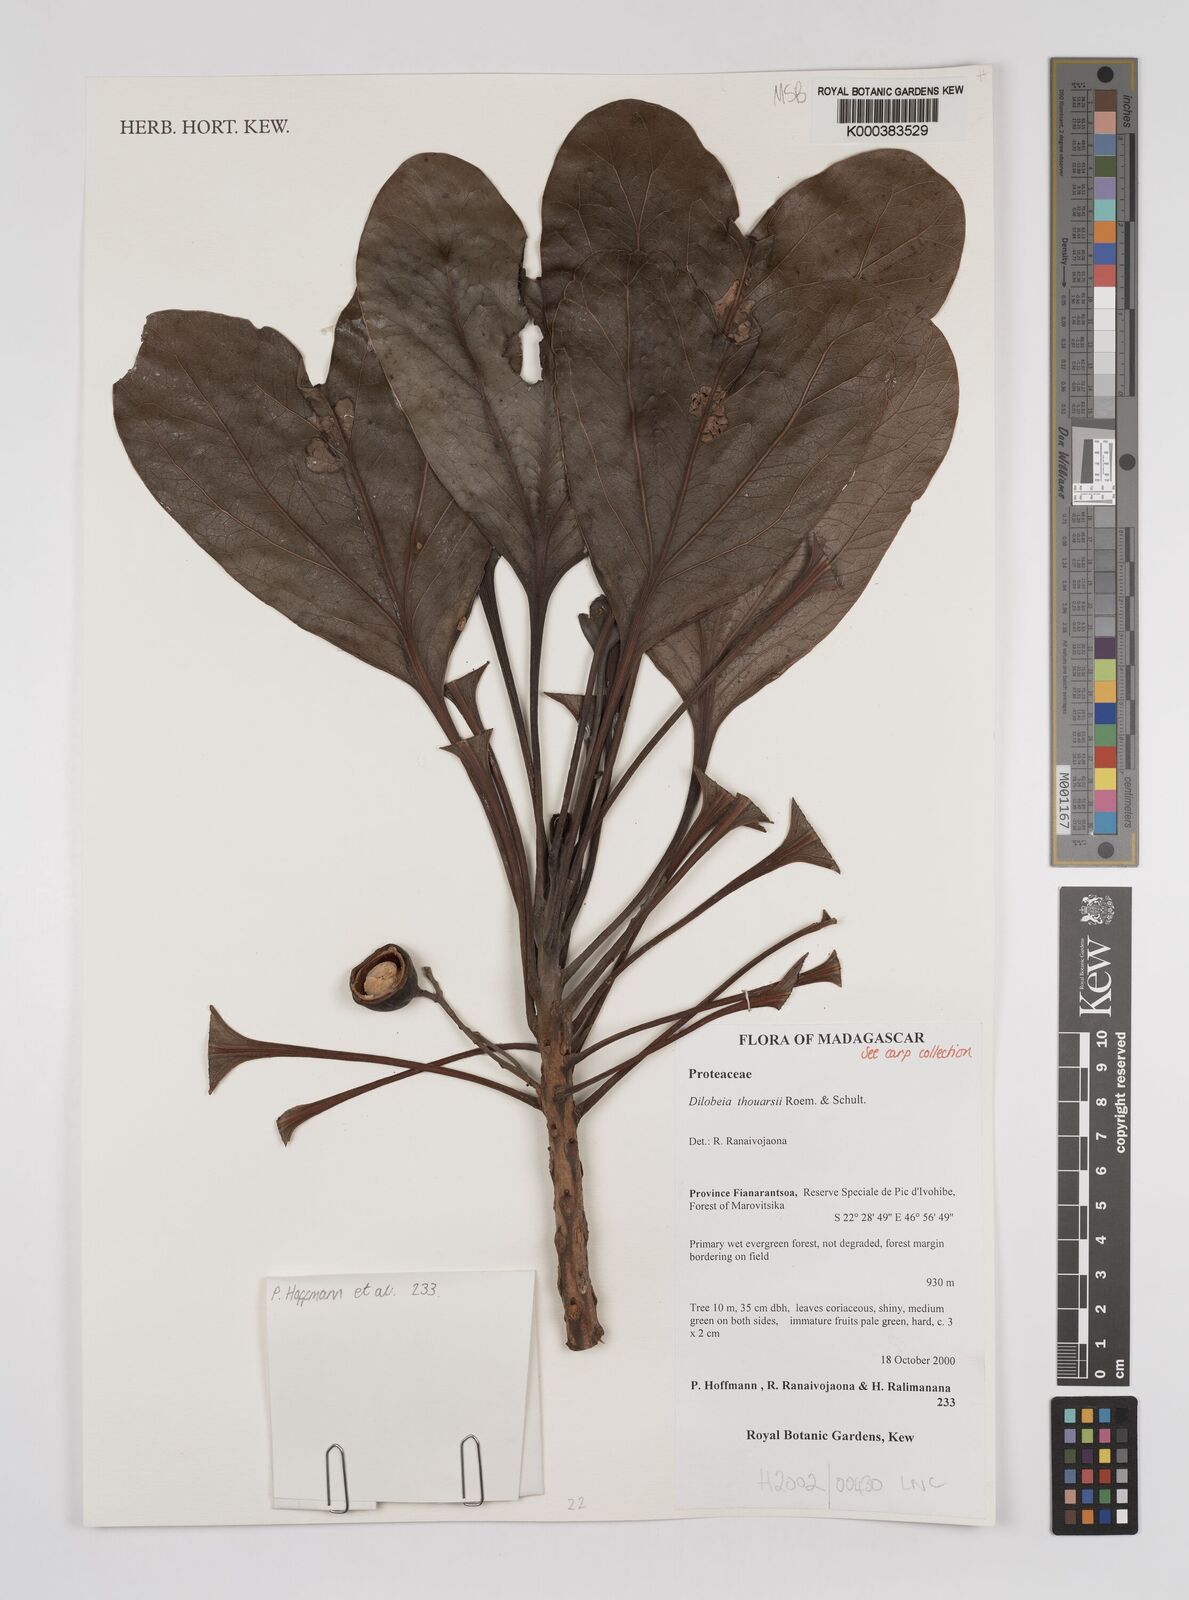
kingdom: Plantae
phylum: Tracheophyta
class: Magnoliopsida
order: Proteales
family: Proteaceae
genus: Dilobeia
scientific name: Dilobeia thouarsii
